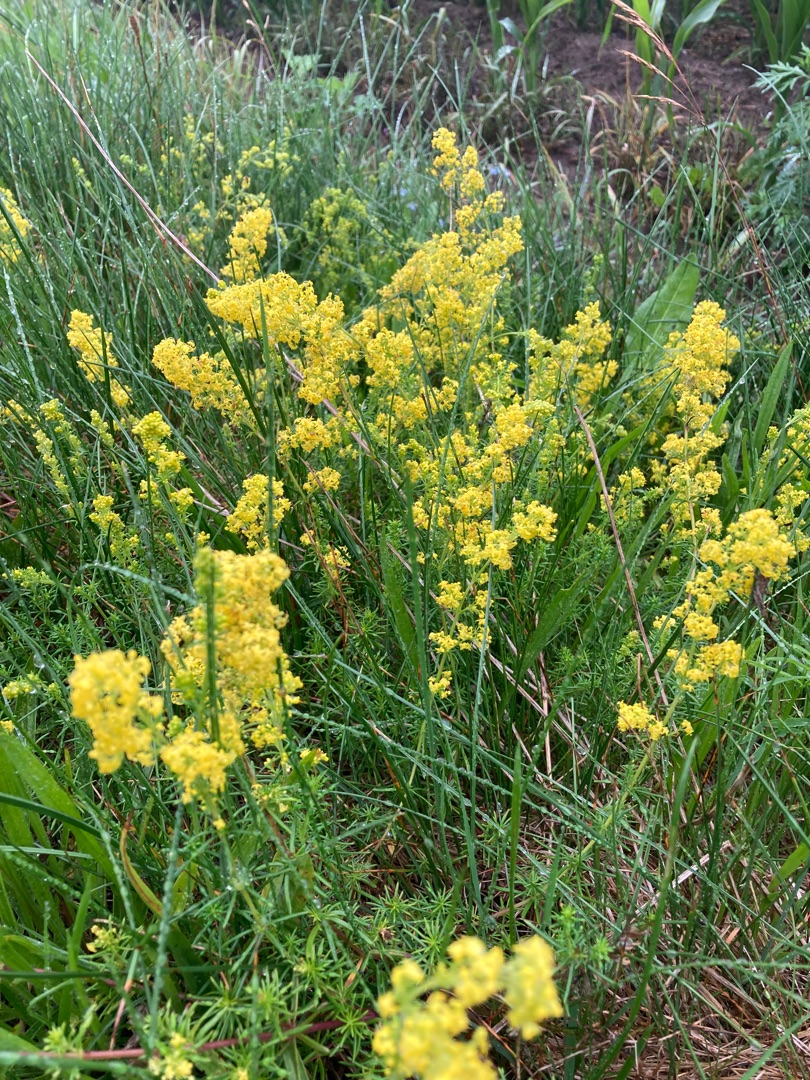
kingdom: Plantae
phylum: Tracheophyta
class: Magnoliopsida
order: Gentianales
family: Rubiaceae
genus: Galium
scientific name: Galium verum
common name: Gul snerre
